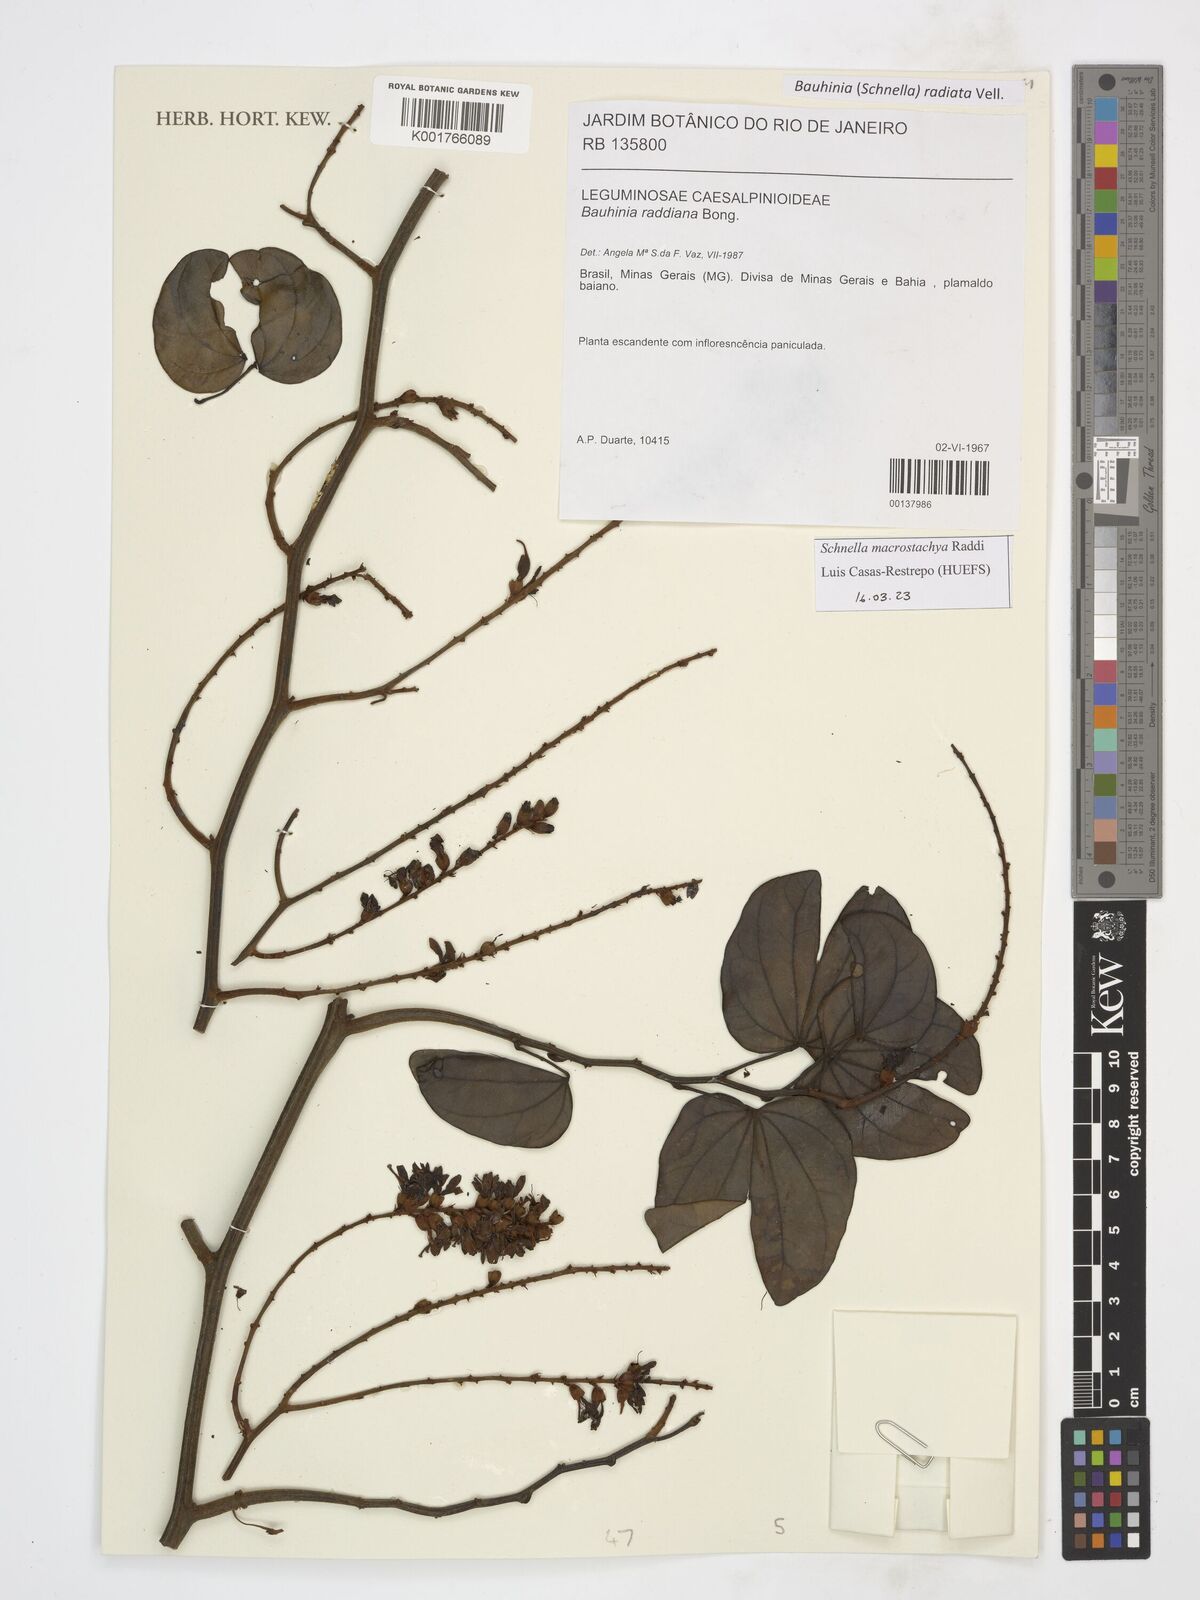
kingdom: Plantae
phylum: Tracheophyta
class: Magnoliopsida
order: Fabales
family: Fabaceae
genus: Schnella
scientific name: Schnella macrostachya
